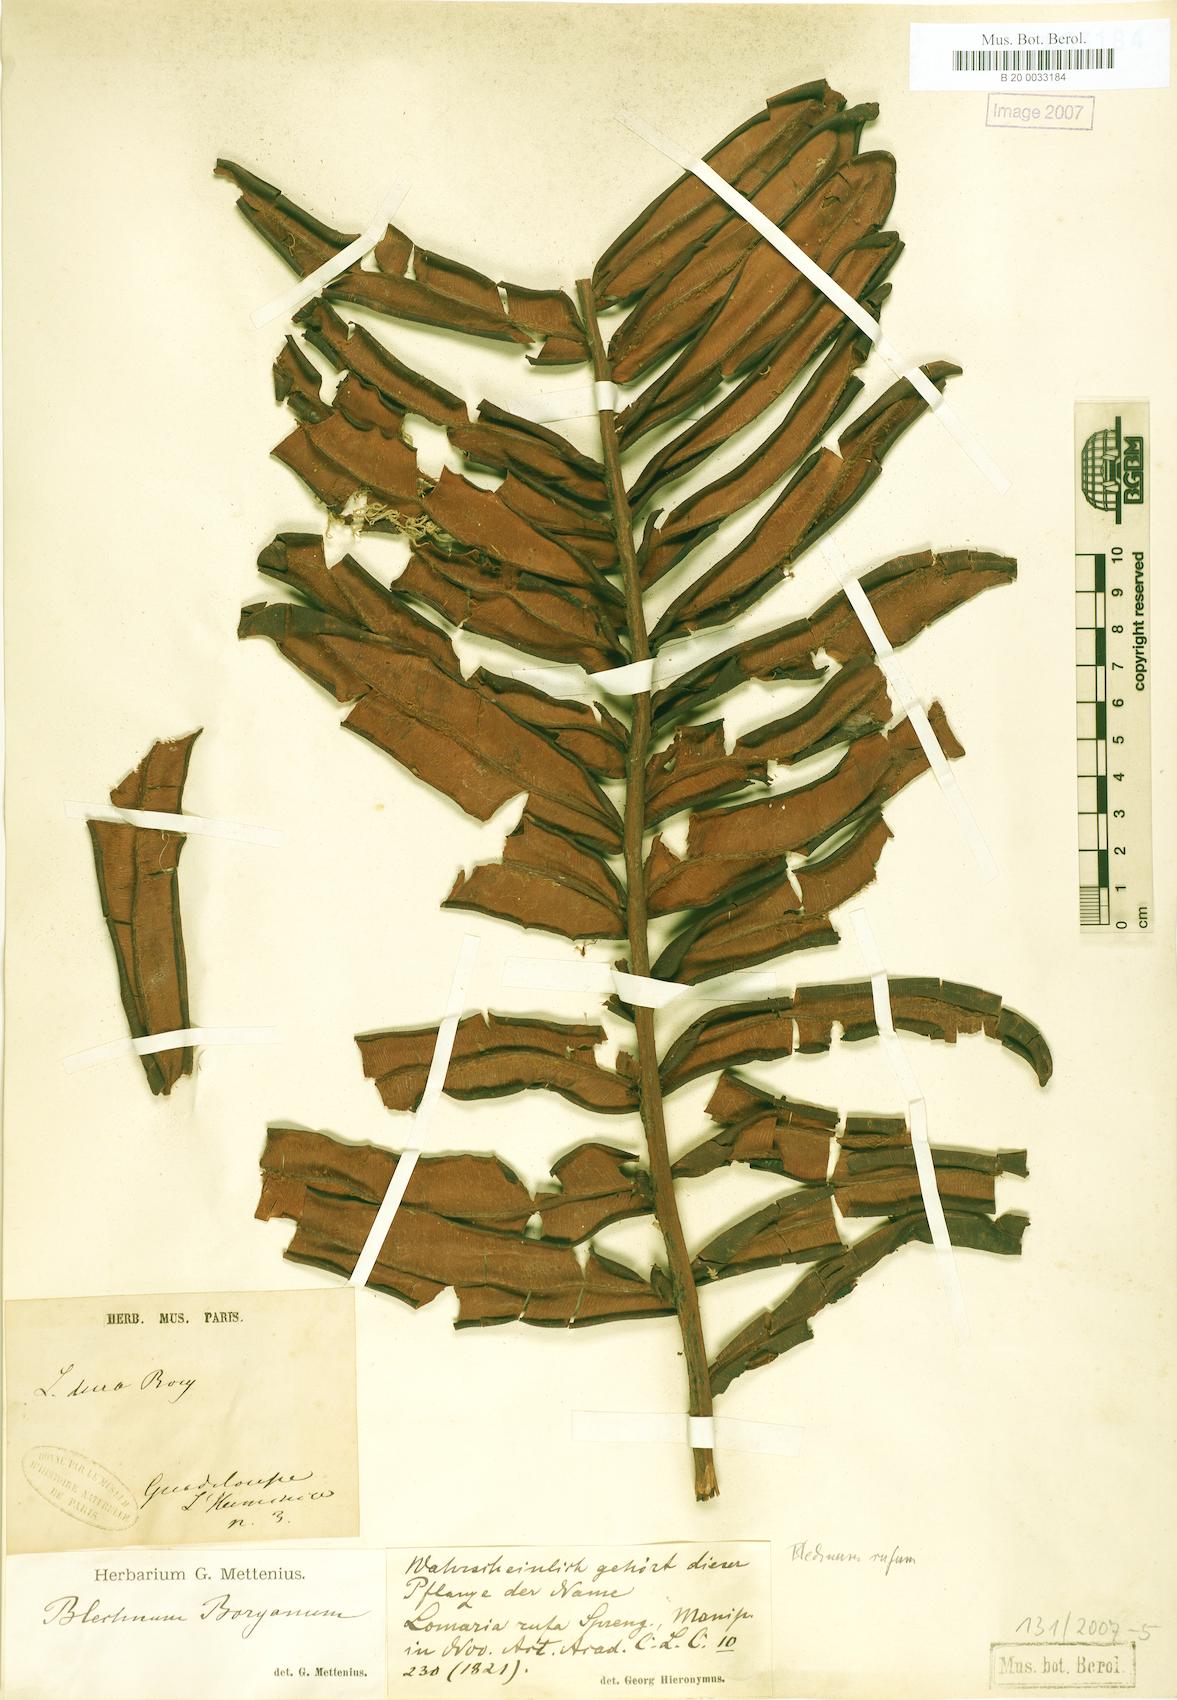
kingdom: Plantae
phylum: Tracheophyta
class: Polypodiopsida
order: Polypodiales
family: Blechnaceae
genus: Lomariocycas
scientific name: Lomariocycas rufa
